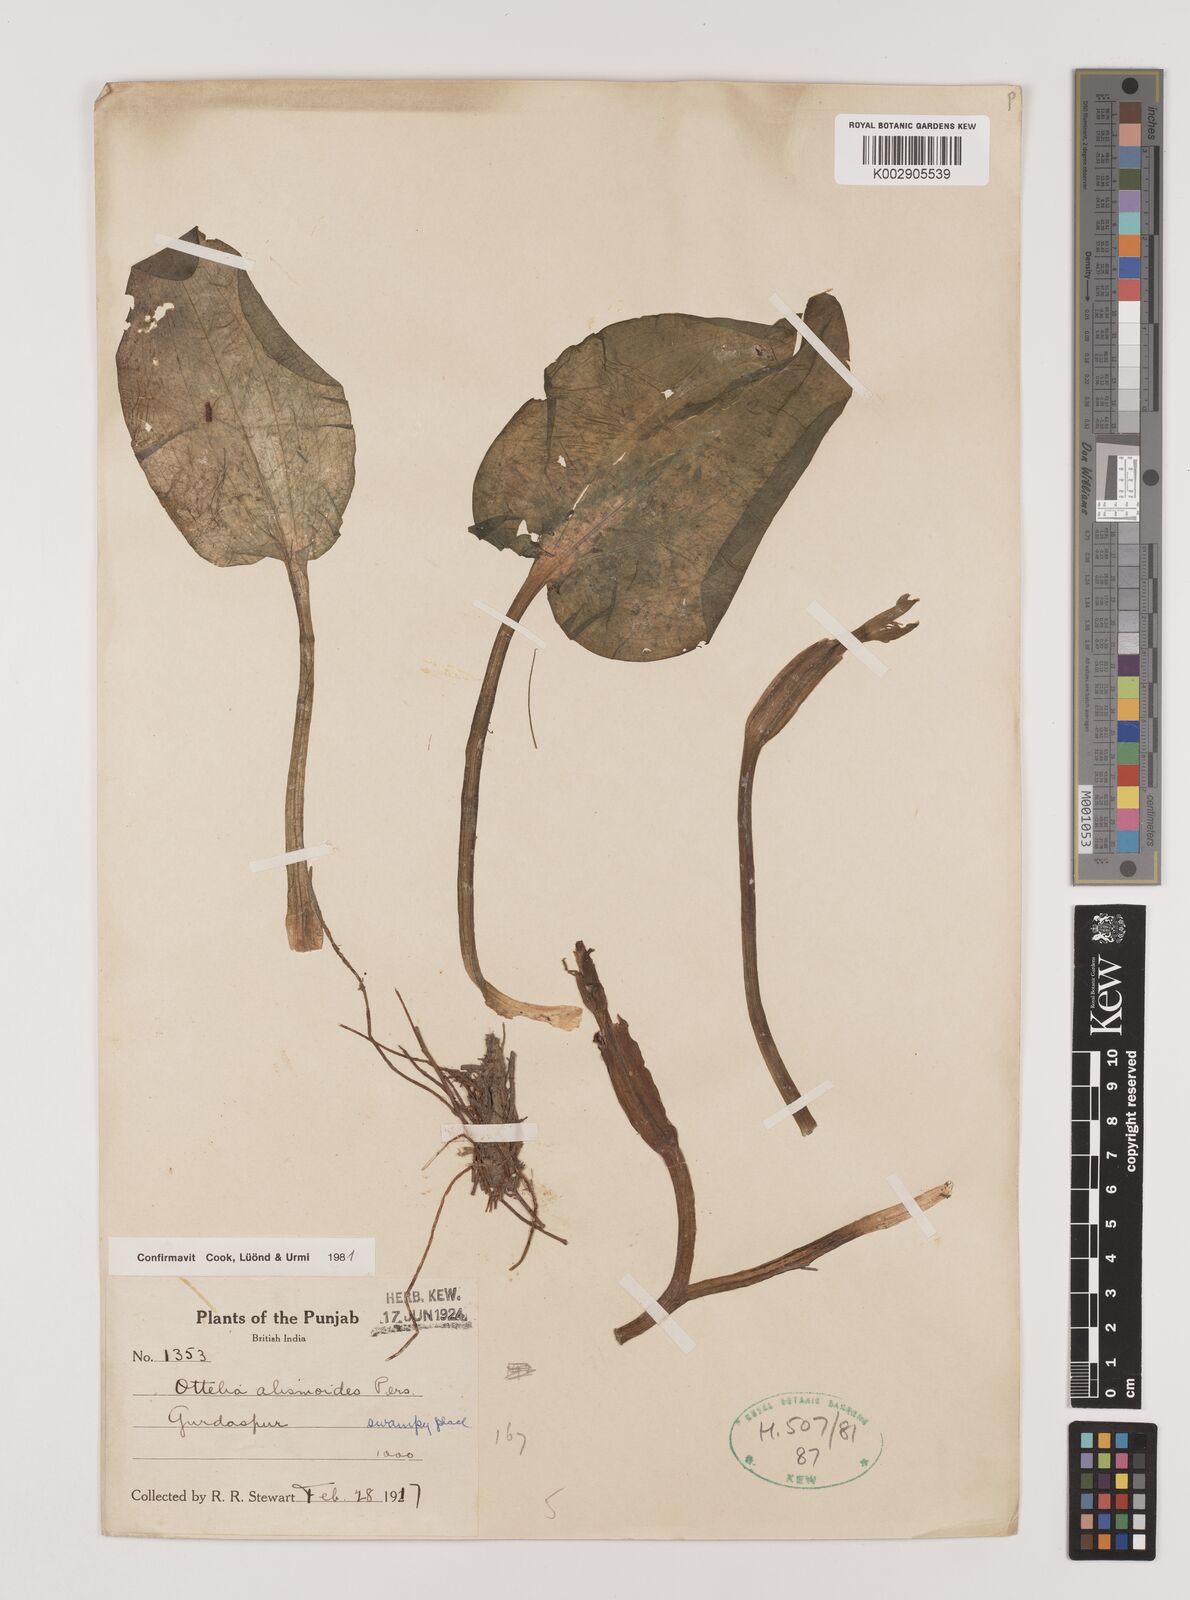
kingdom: Plantae
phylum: Tracheophyta
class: Liliopsida
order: Alismatales
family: Hydrocharitaceae
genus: Ottelia
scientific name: Ottelia alismoides
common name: Duck-lettuce
